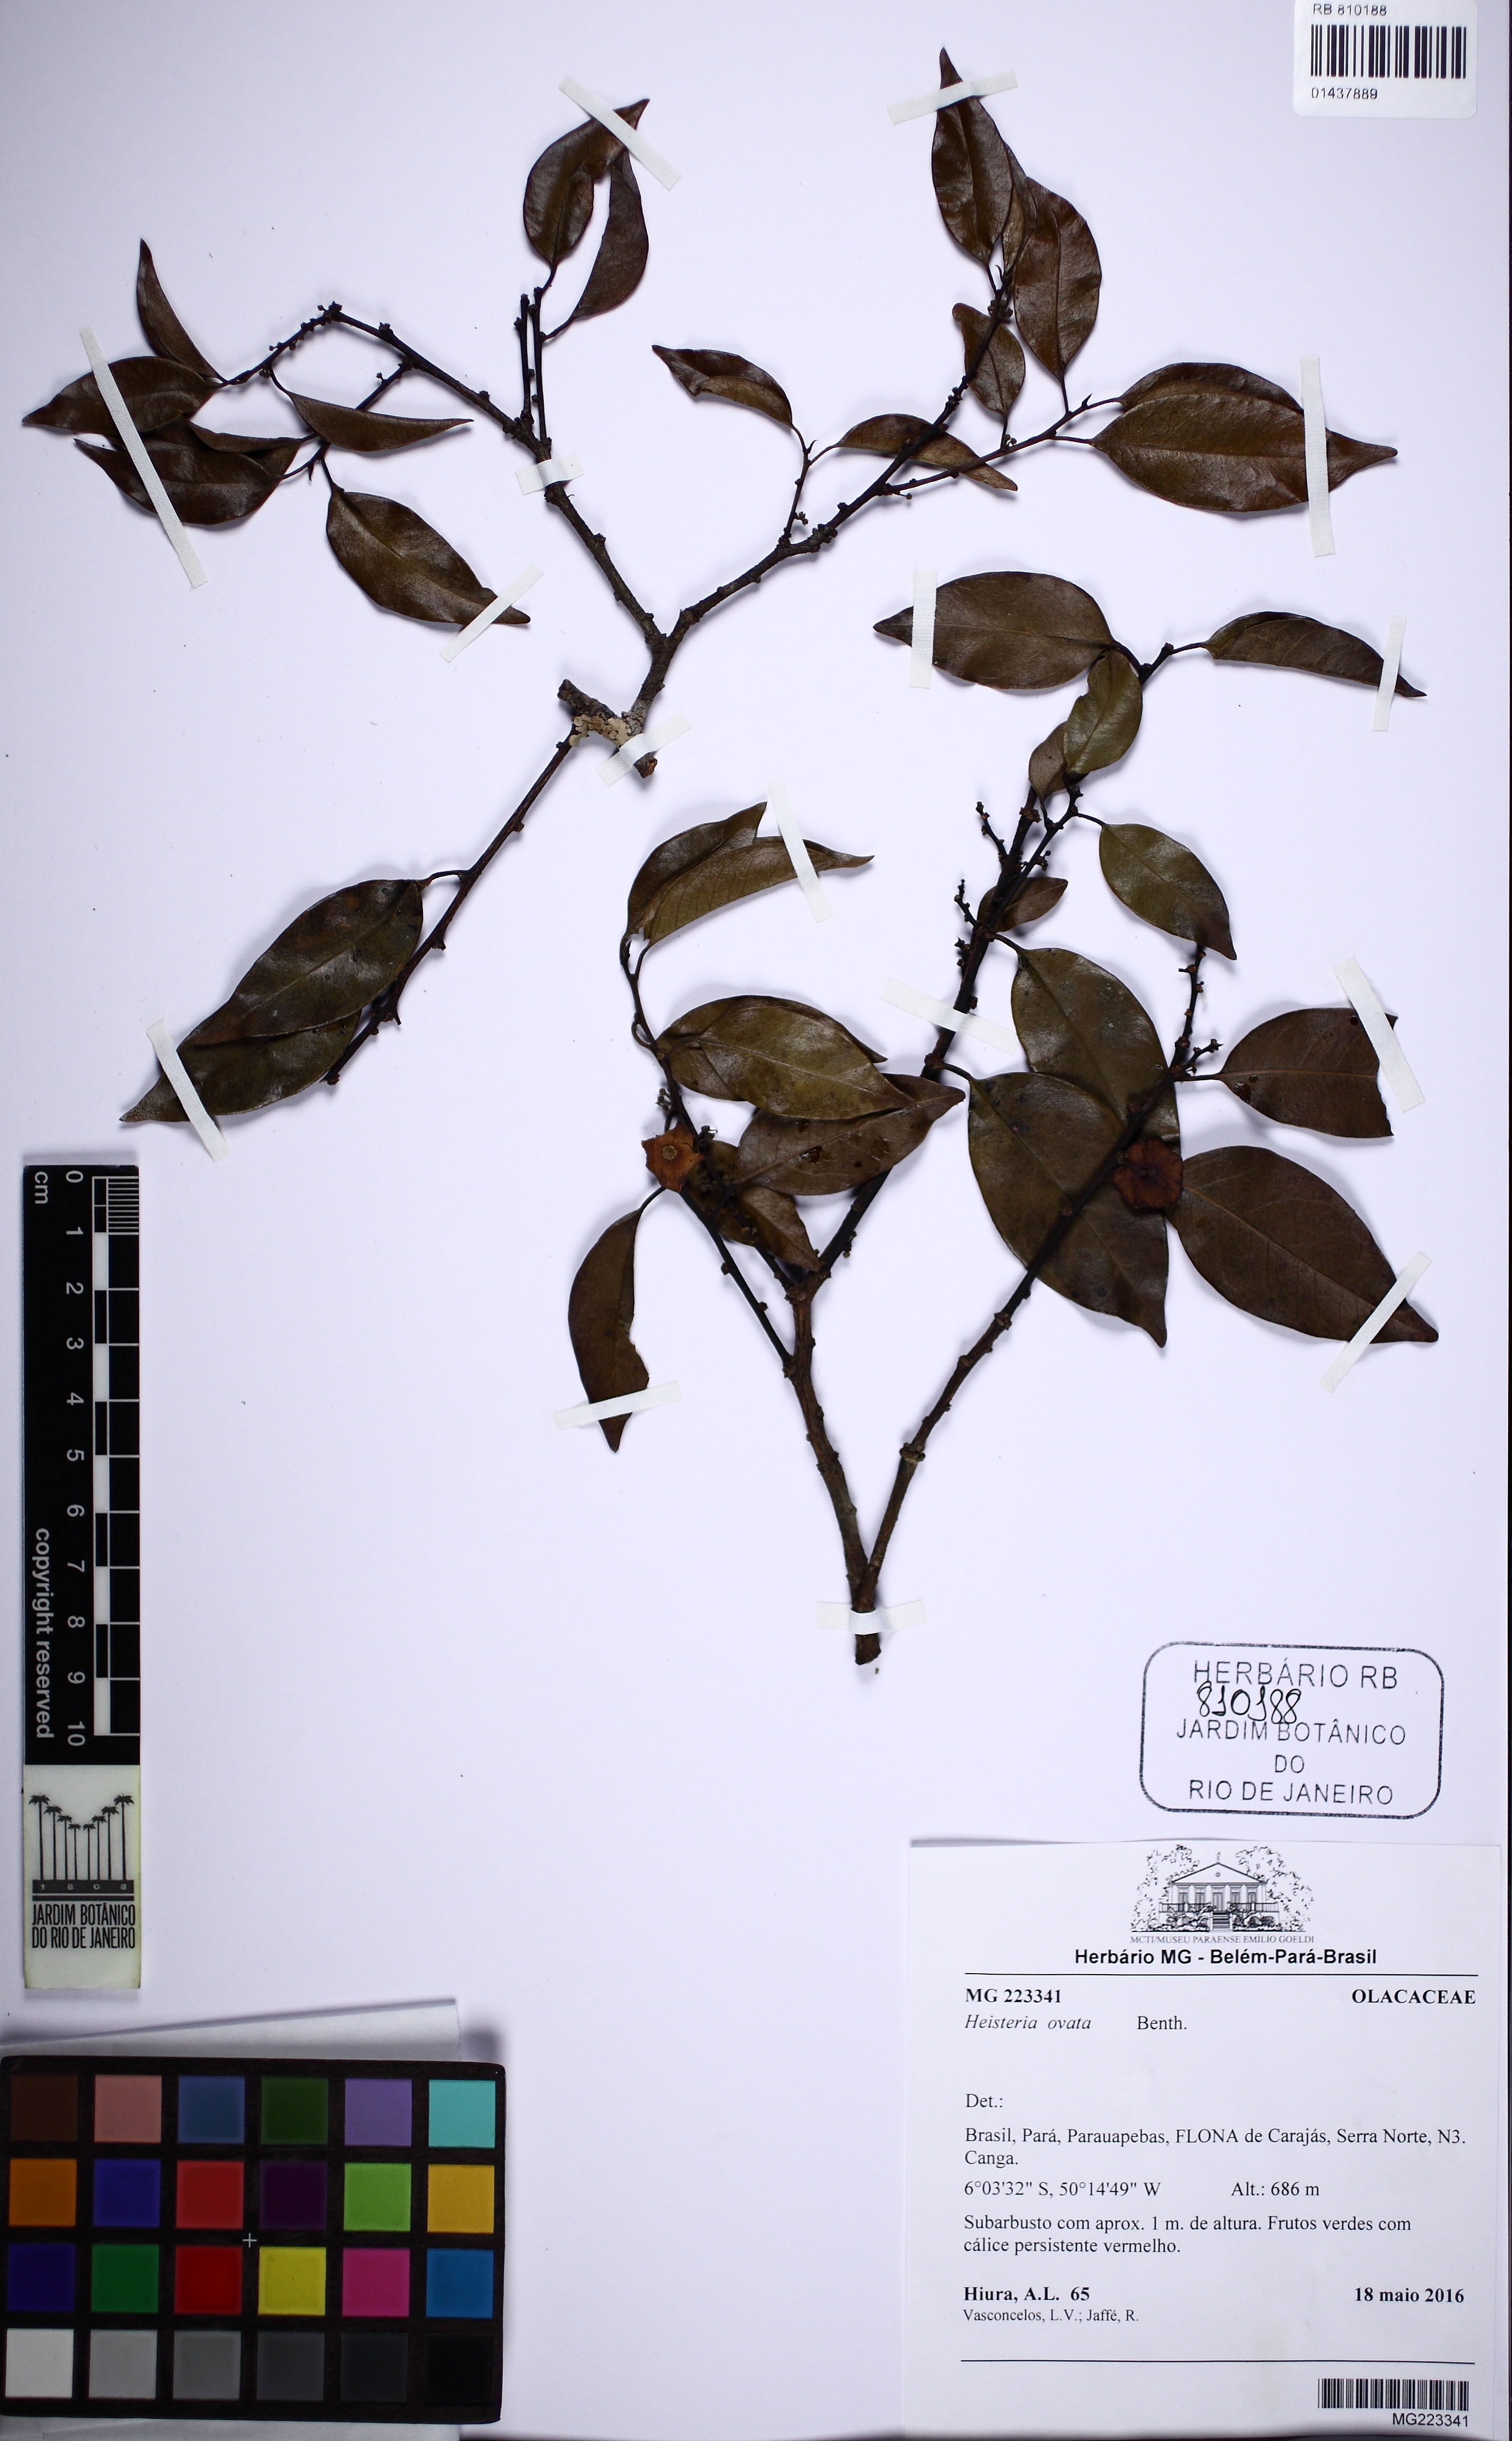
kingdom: Plantae
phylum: Tracheophyta
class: Magnoliopsida
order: Santalales
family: Erythropalaceae
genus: Heisteria
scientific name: Heisteria ovata
